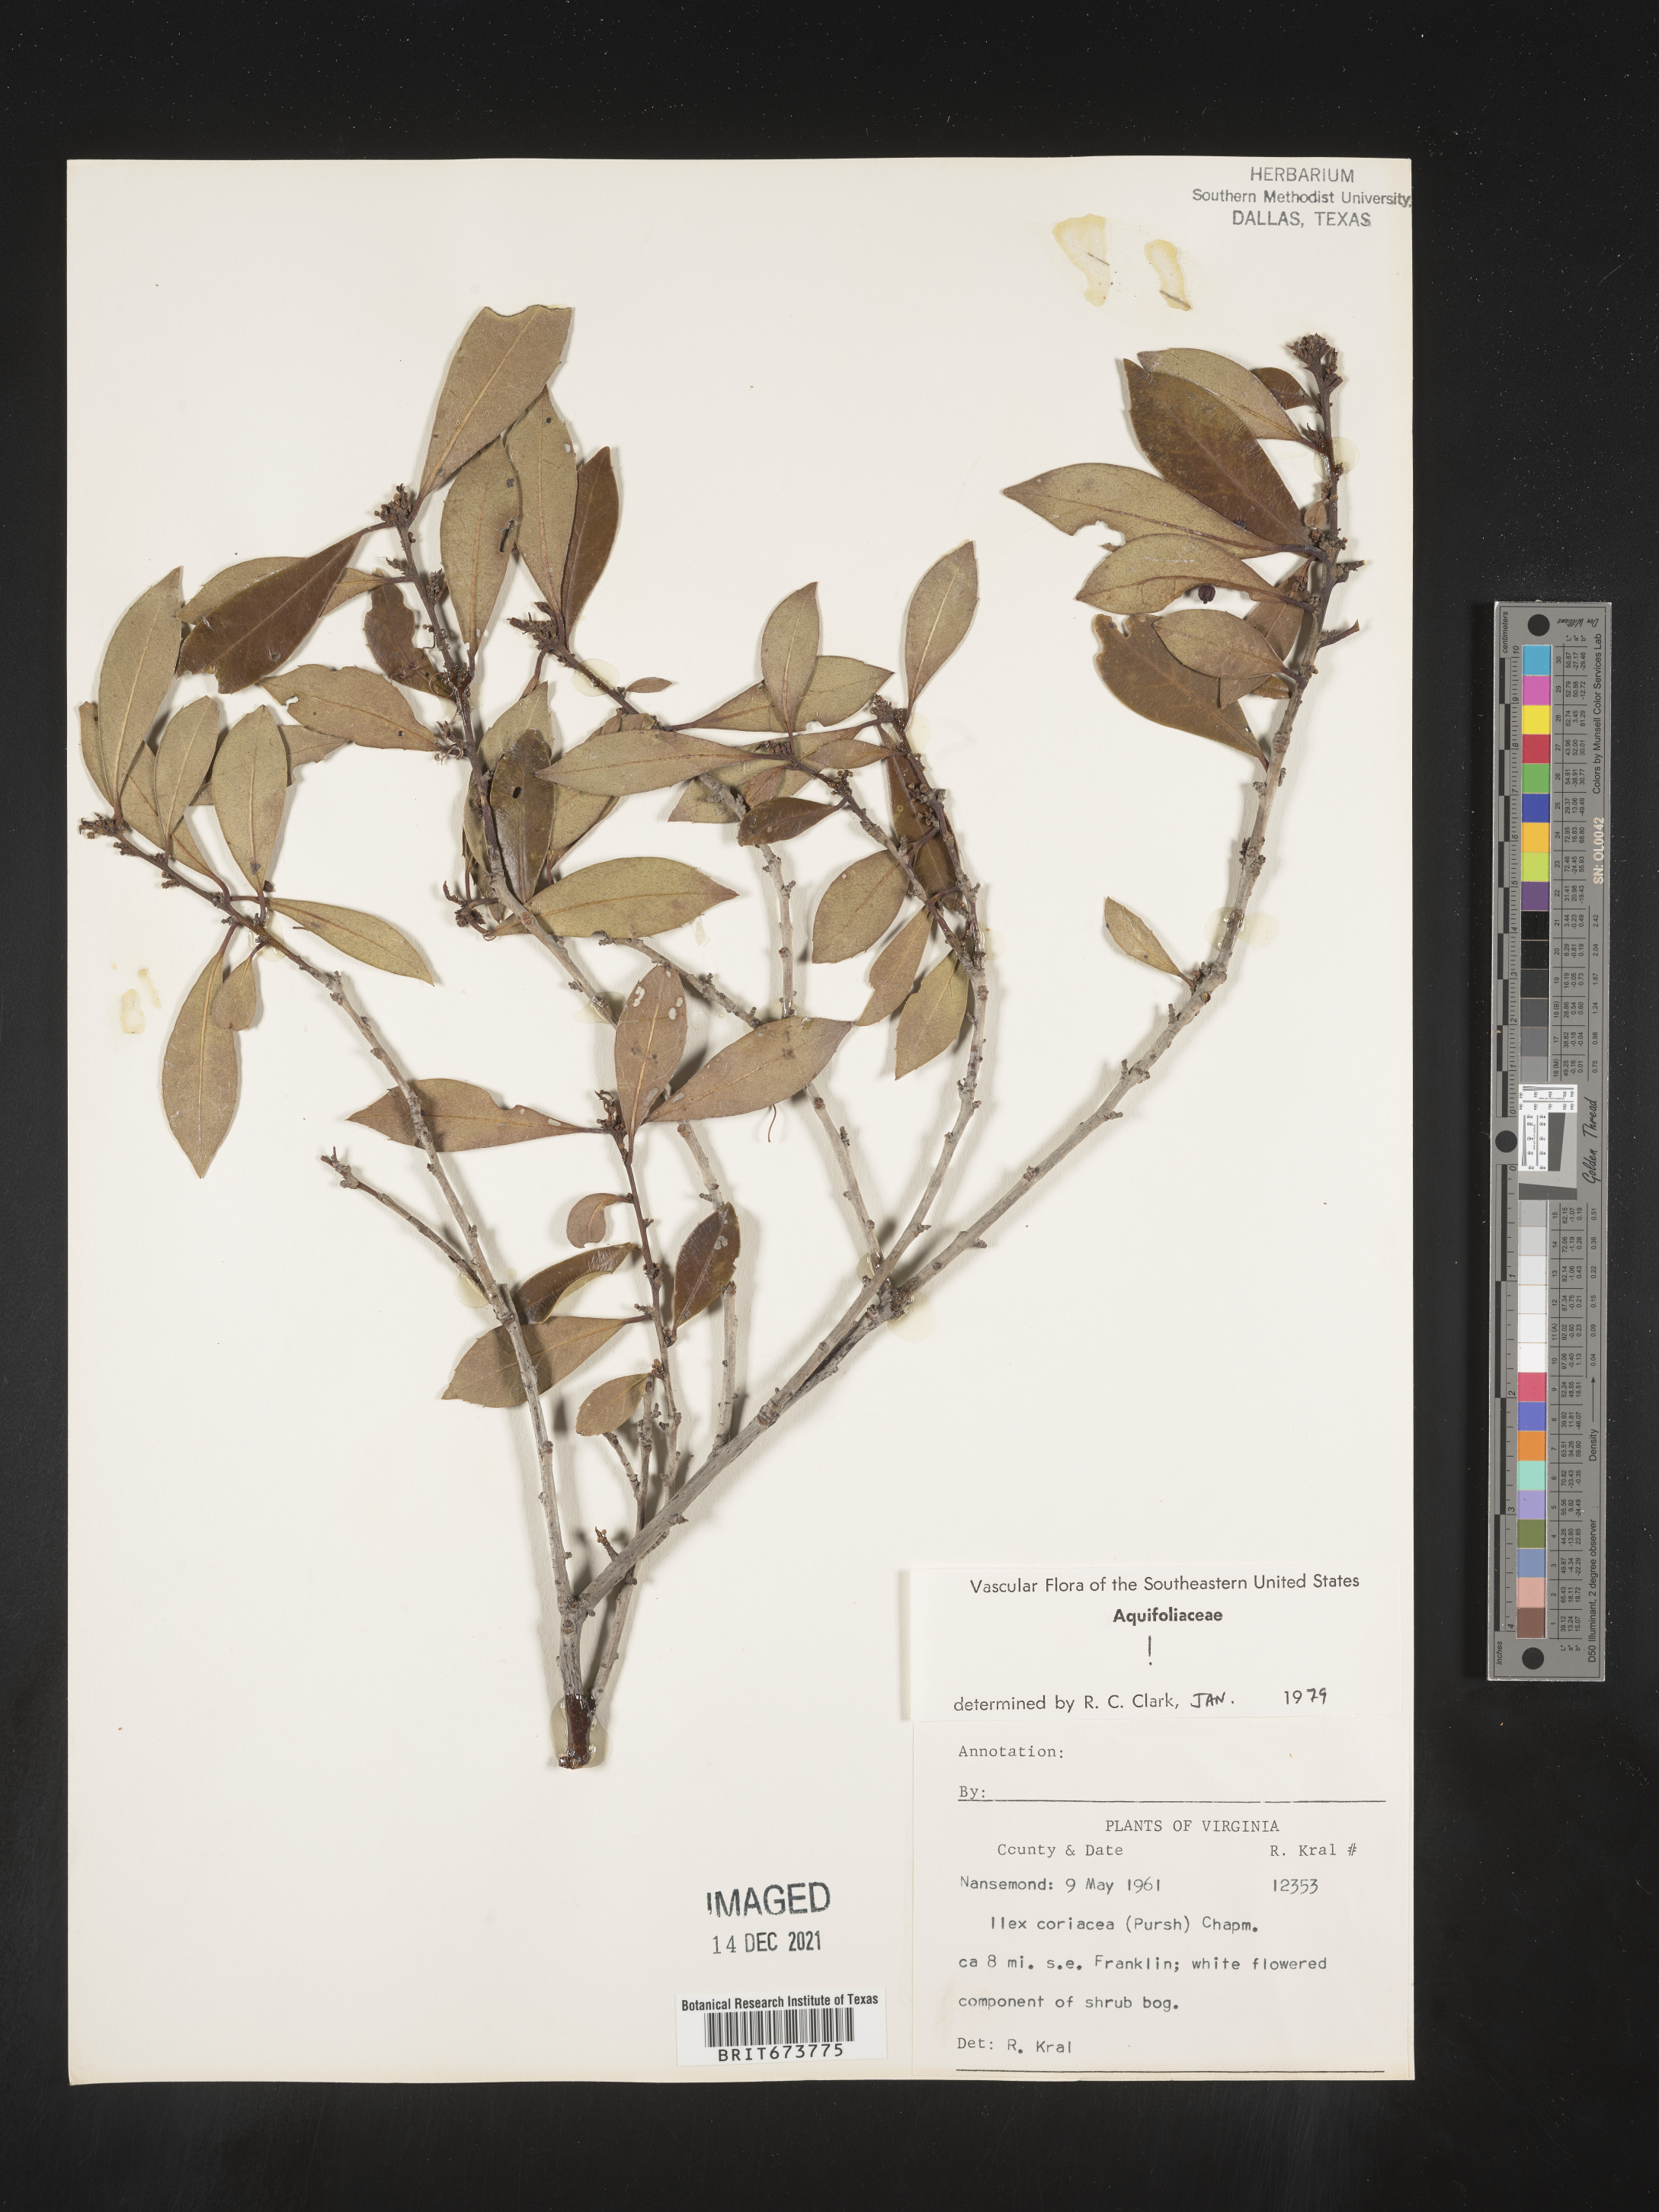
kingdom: Plantae
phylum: Tracheophyta
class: Magnoliopsida
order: Aquifoliales
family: Aquifoliaceae
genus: Ilex
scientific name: Ilex coriacea
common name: Sweet gallberry
